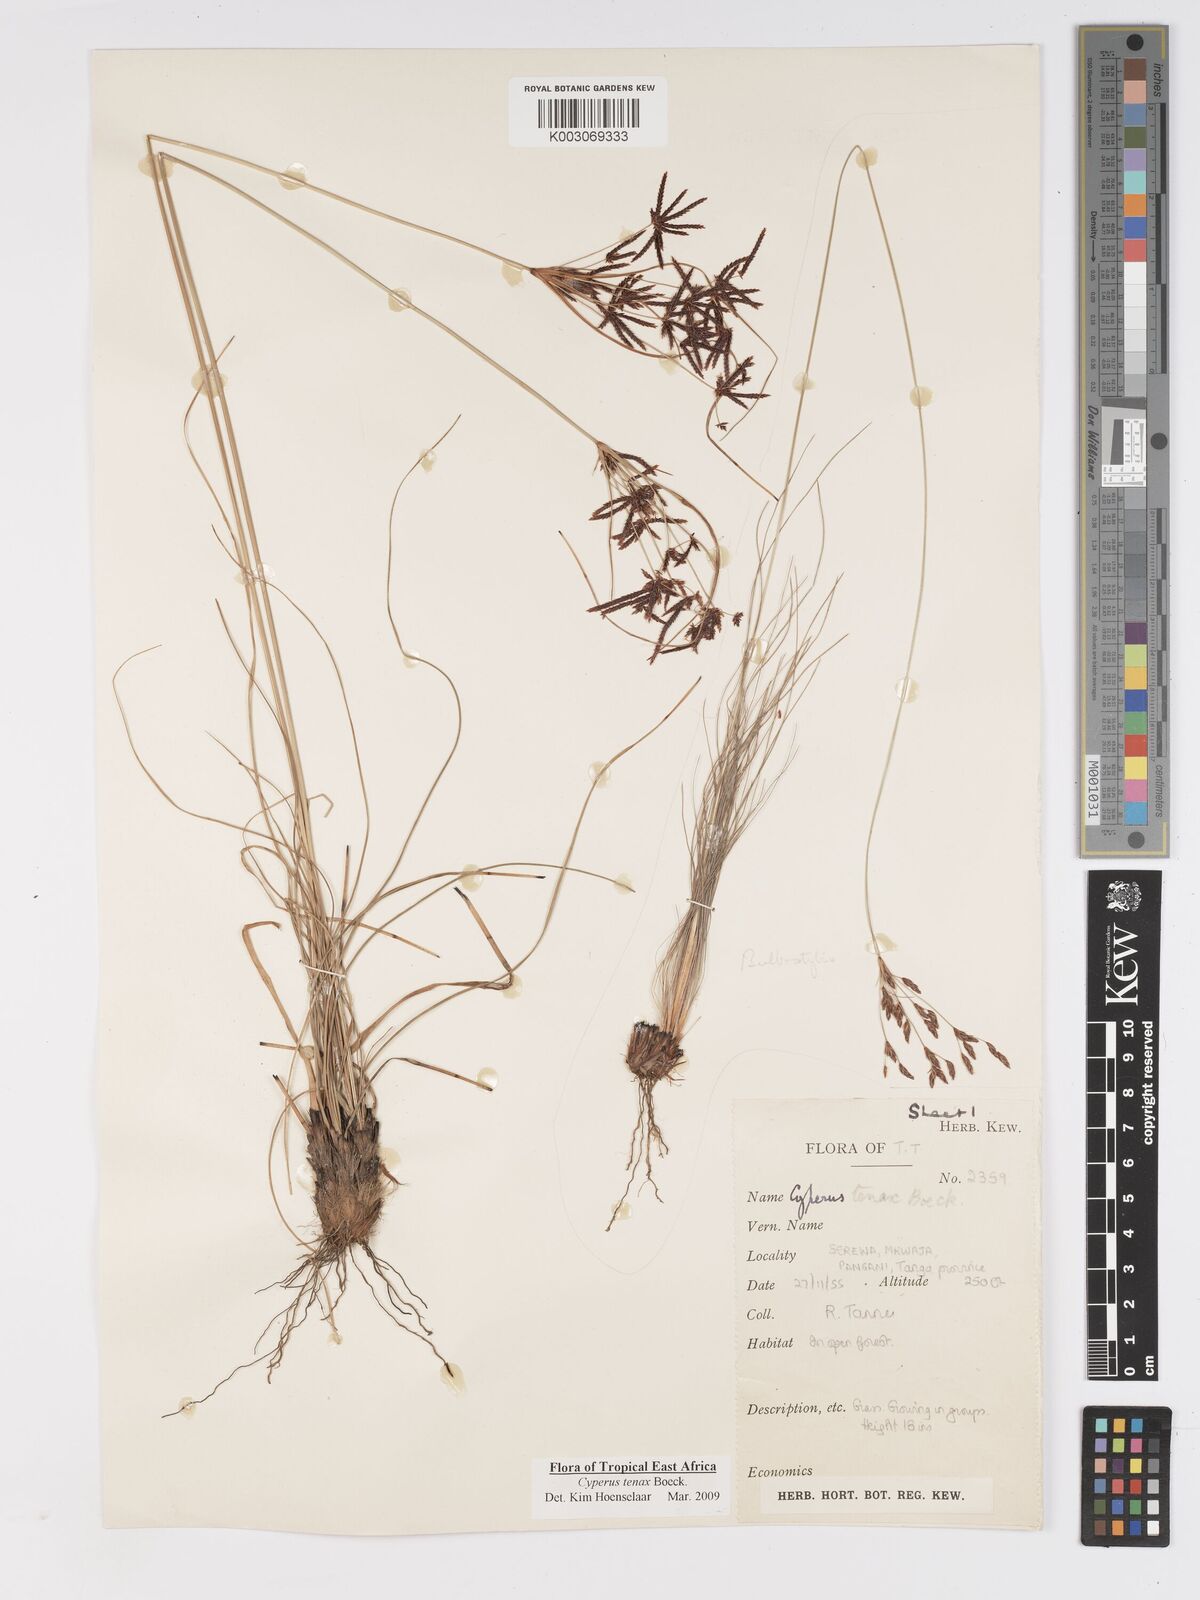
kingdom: Plantae
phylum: Tracheophyta
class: Liliopsida
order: Poales
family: Cyperaceae
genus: Cyperus
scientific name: Cyperus tenax
